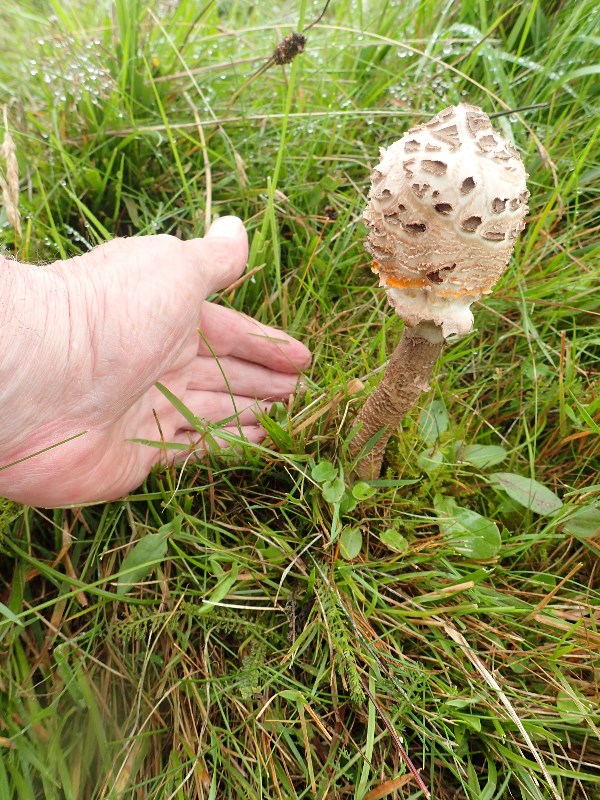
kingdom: Fungi
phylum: Basidiomycota
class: Agaricomycetes
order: Agaricales
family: Agaricaceae
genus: Macrolepiota
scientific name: Macrolepiota procera
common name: stor kæmpeparasolhat
